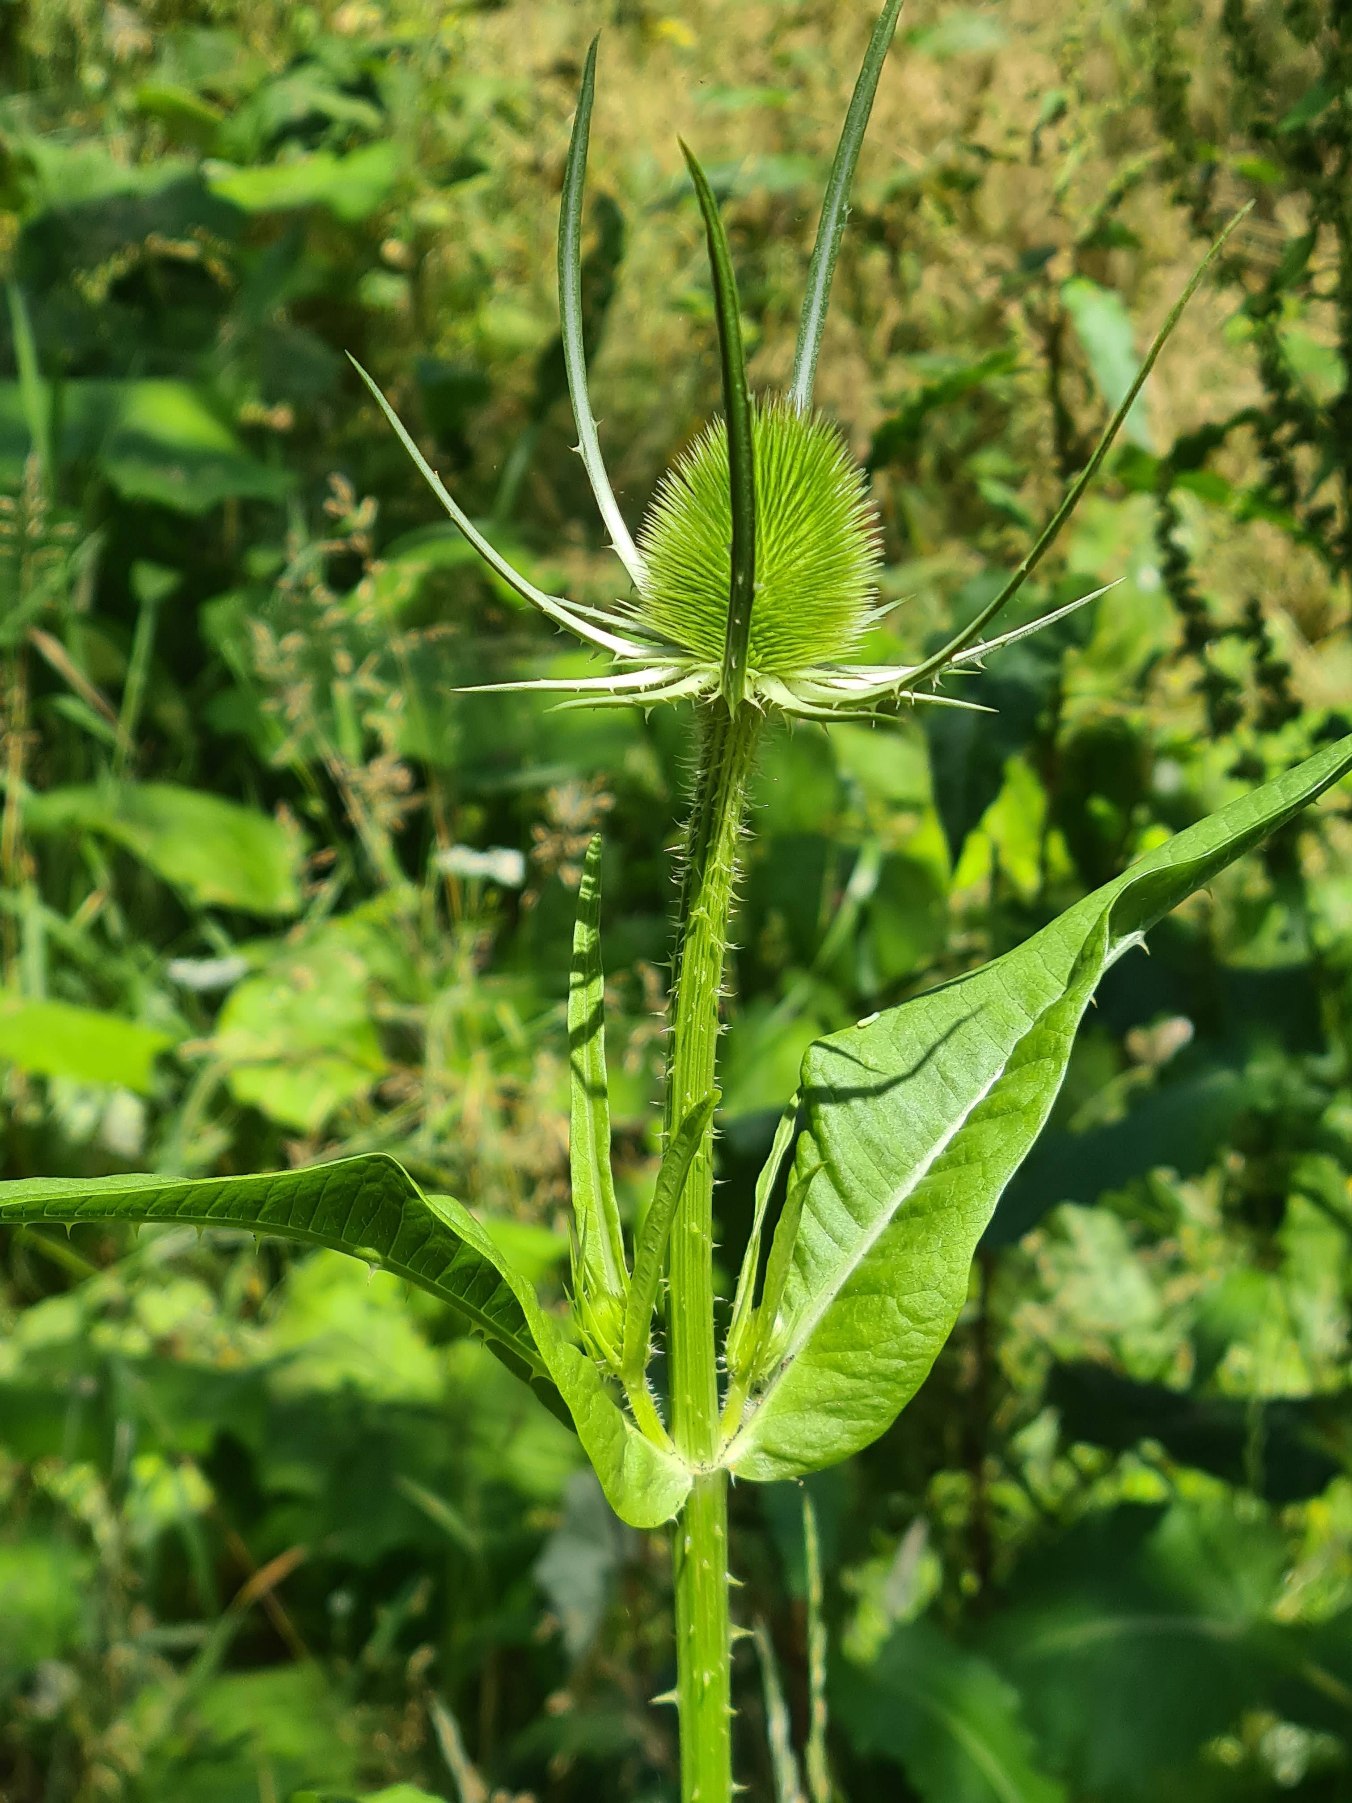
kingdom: Plantae
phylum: Tracheophyta
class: Magnoliopsida
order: Dipsacales
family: Caprifoliaceae
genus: Dipsacus
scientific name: Dipsacus fullonum
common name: Gærde-kartebolle
